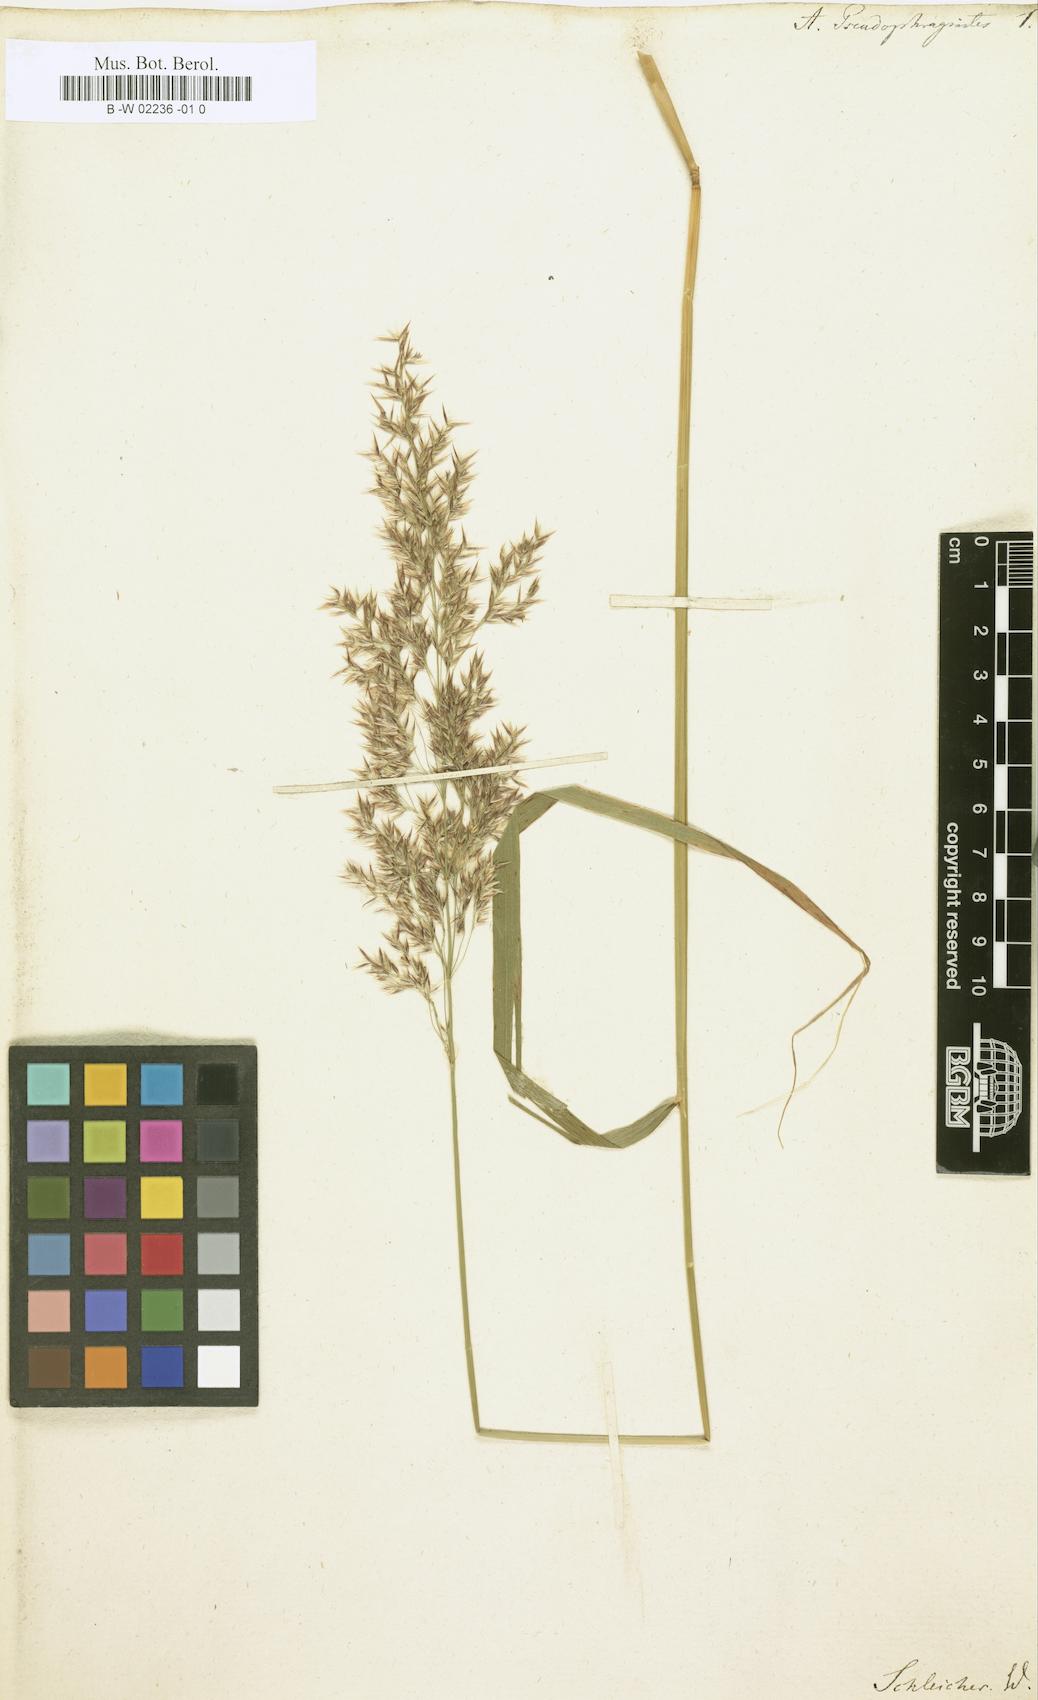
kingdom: Plantae
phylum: Tracheophyta
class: Liliopsida
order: Poales
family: Poaceae
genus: Arundo
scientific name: Arundo pseudophragmites
